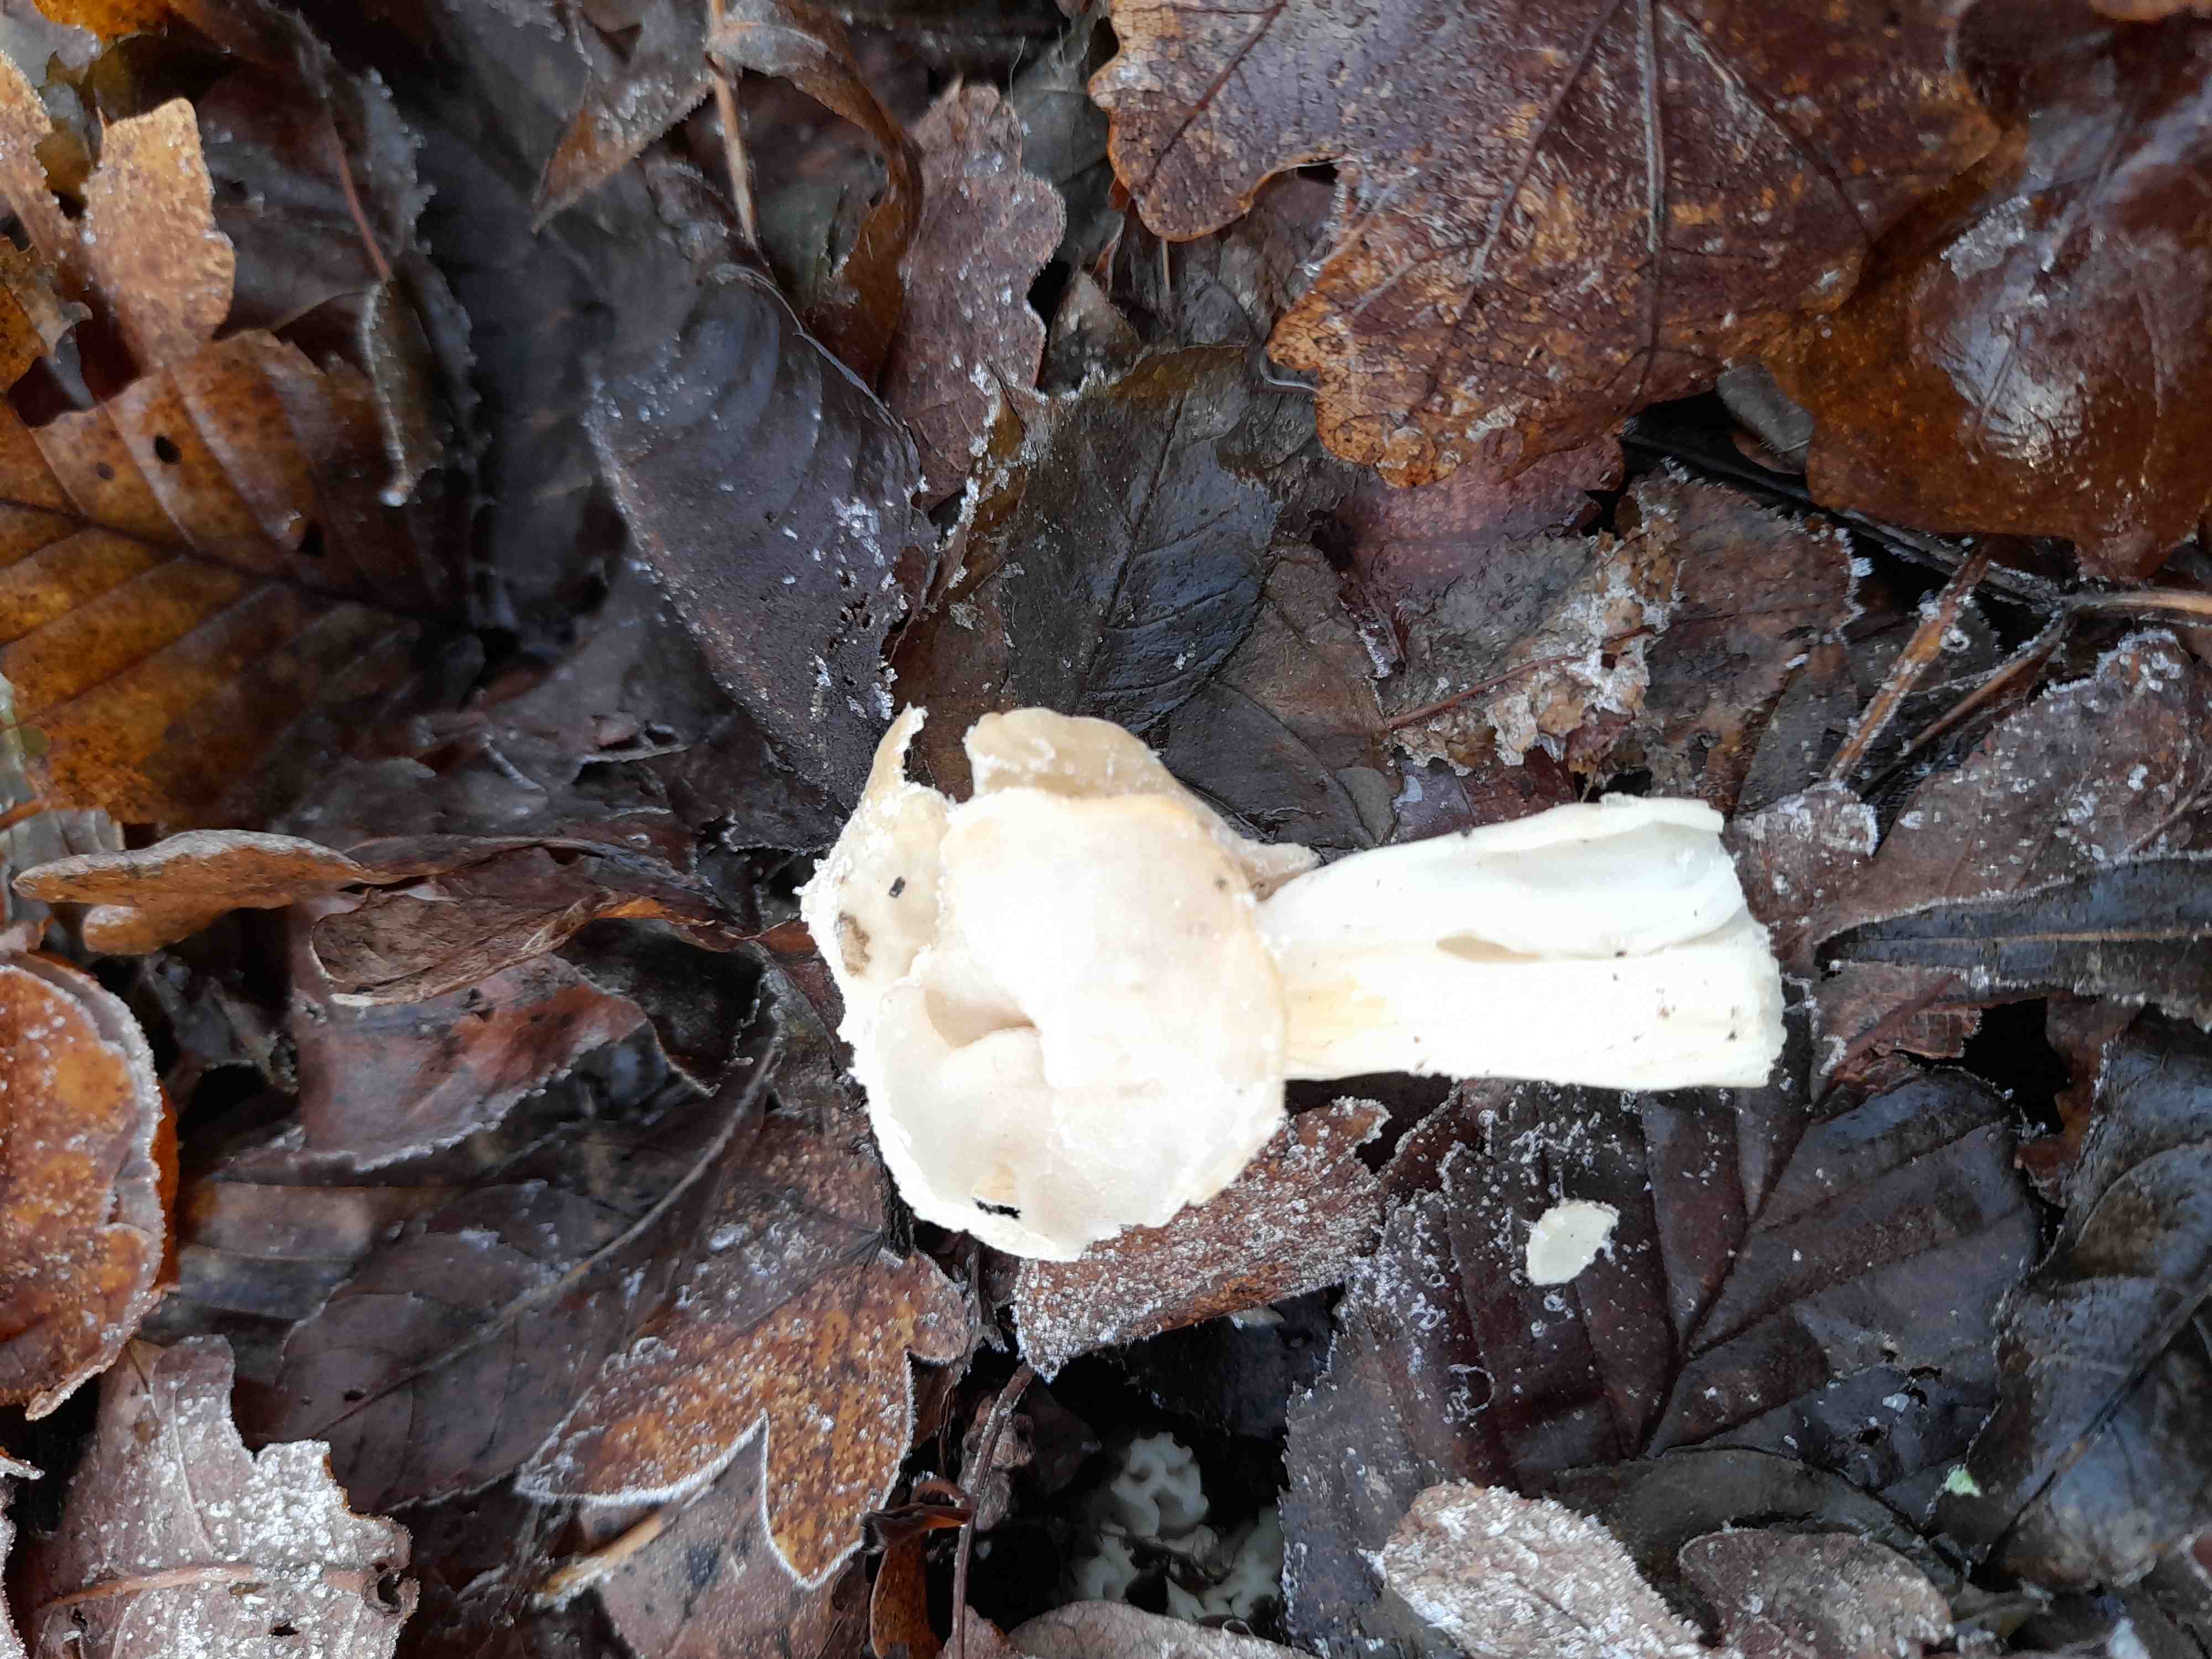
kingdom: Fungi
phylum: Ascomycota
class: Pezizomycetes
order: Pezizales
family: Helvellaceae
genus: Helvella
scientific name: Helvella crispa
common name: kruset foldhat
